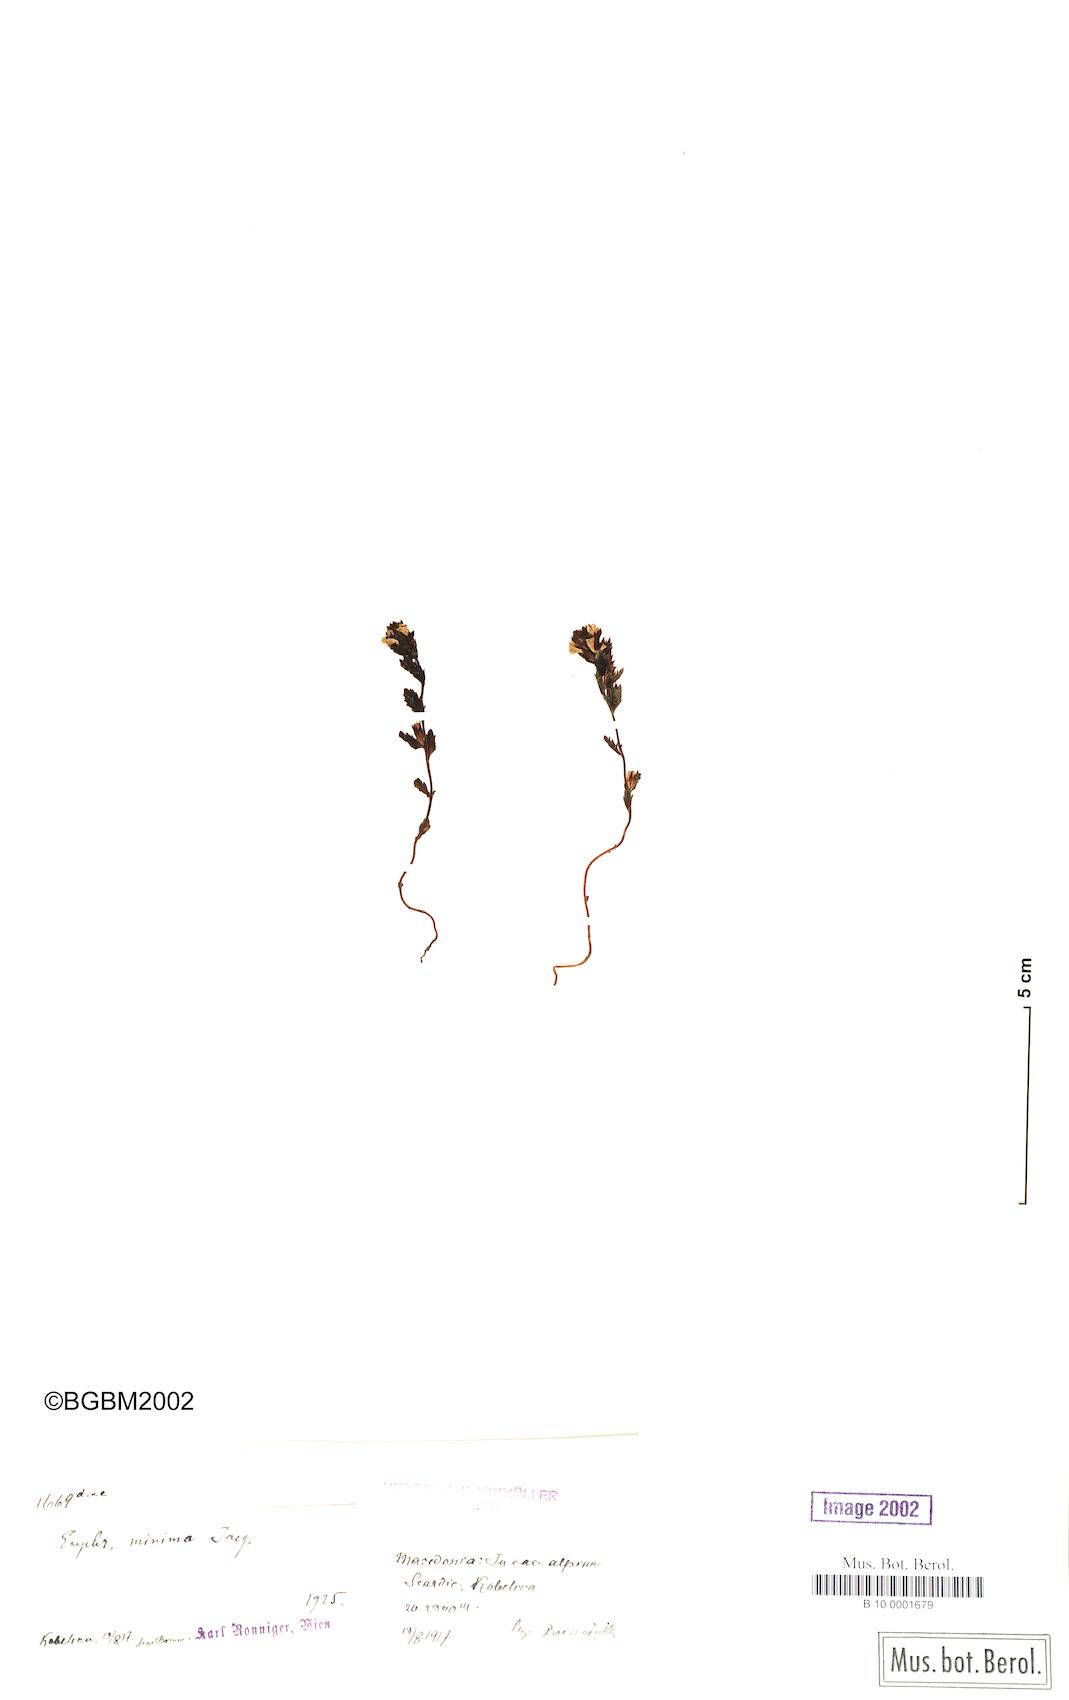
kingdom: Plantae
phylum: Tracheophyta
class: Magnoliopsida
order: Lamiales
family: Orobanchaceae
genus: Euphrasia
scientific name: Euphrasia minima
